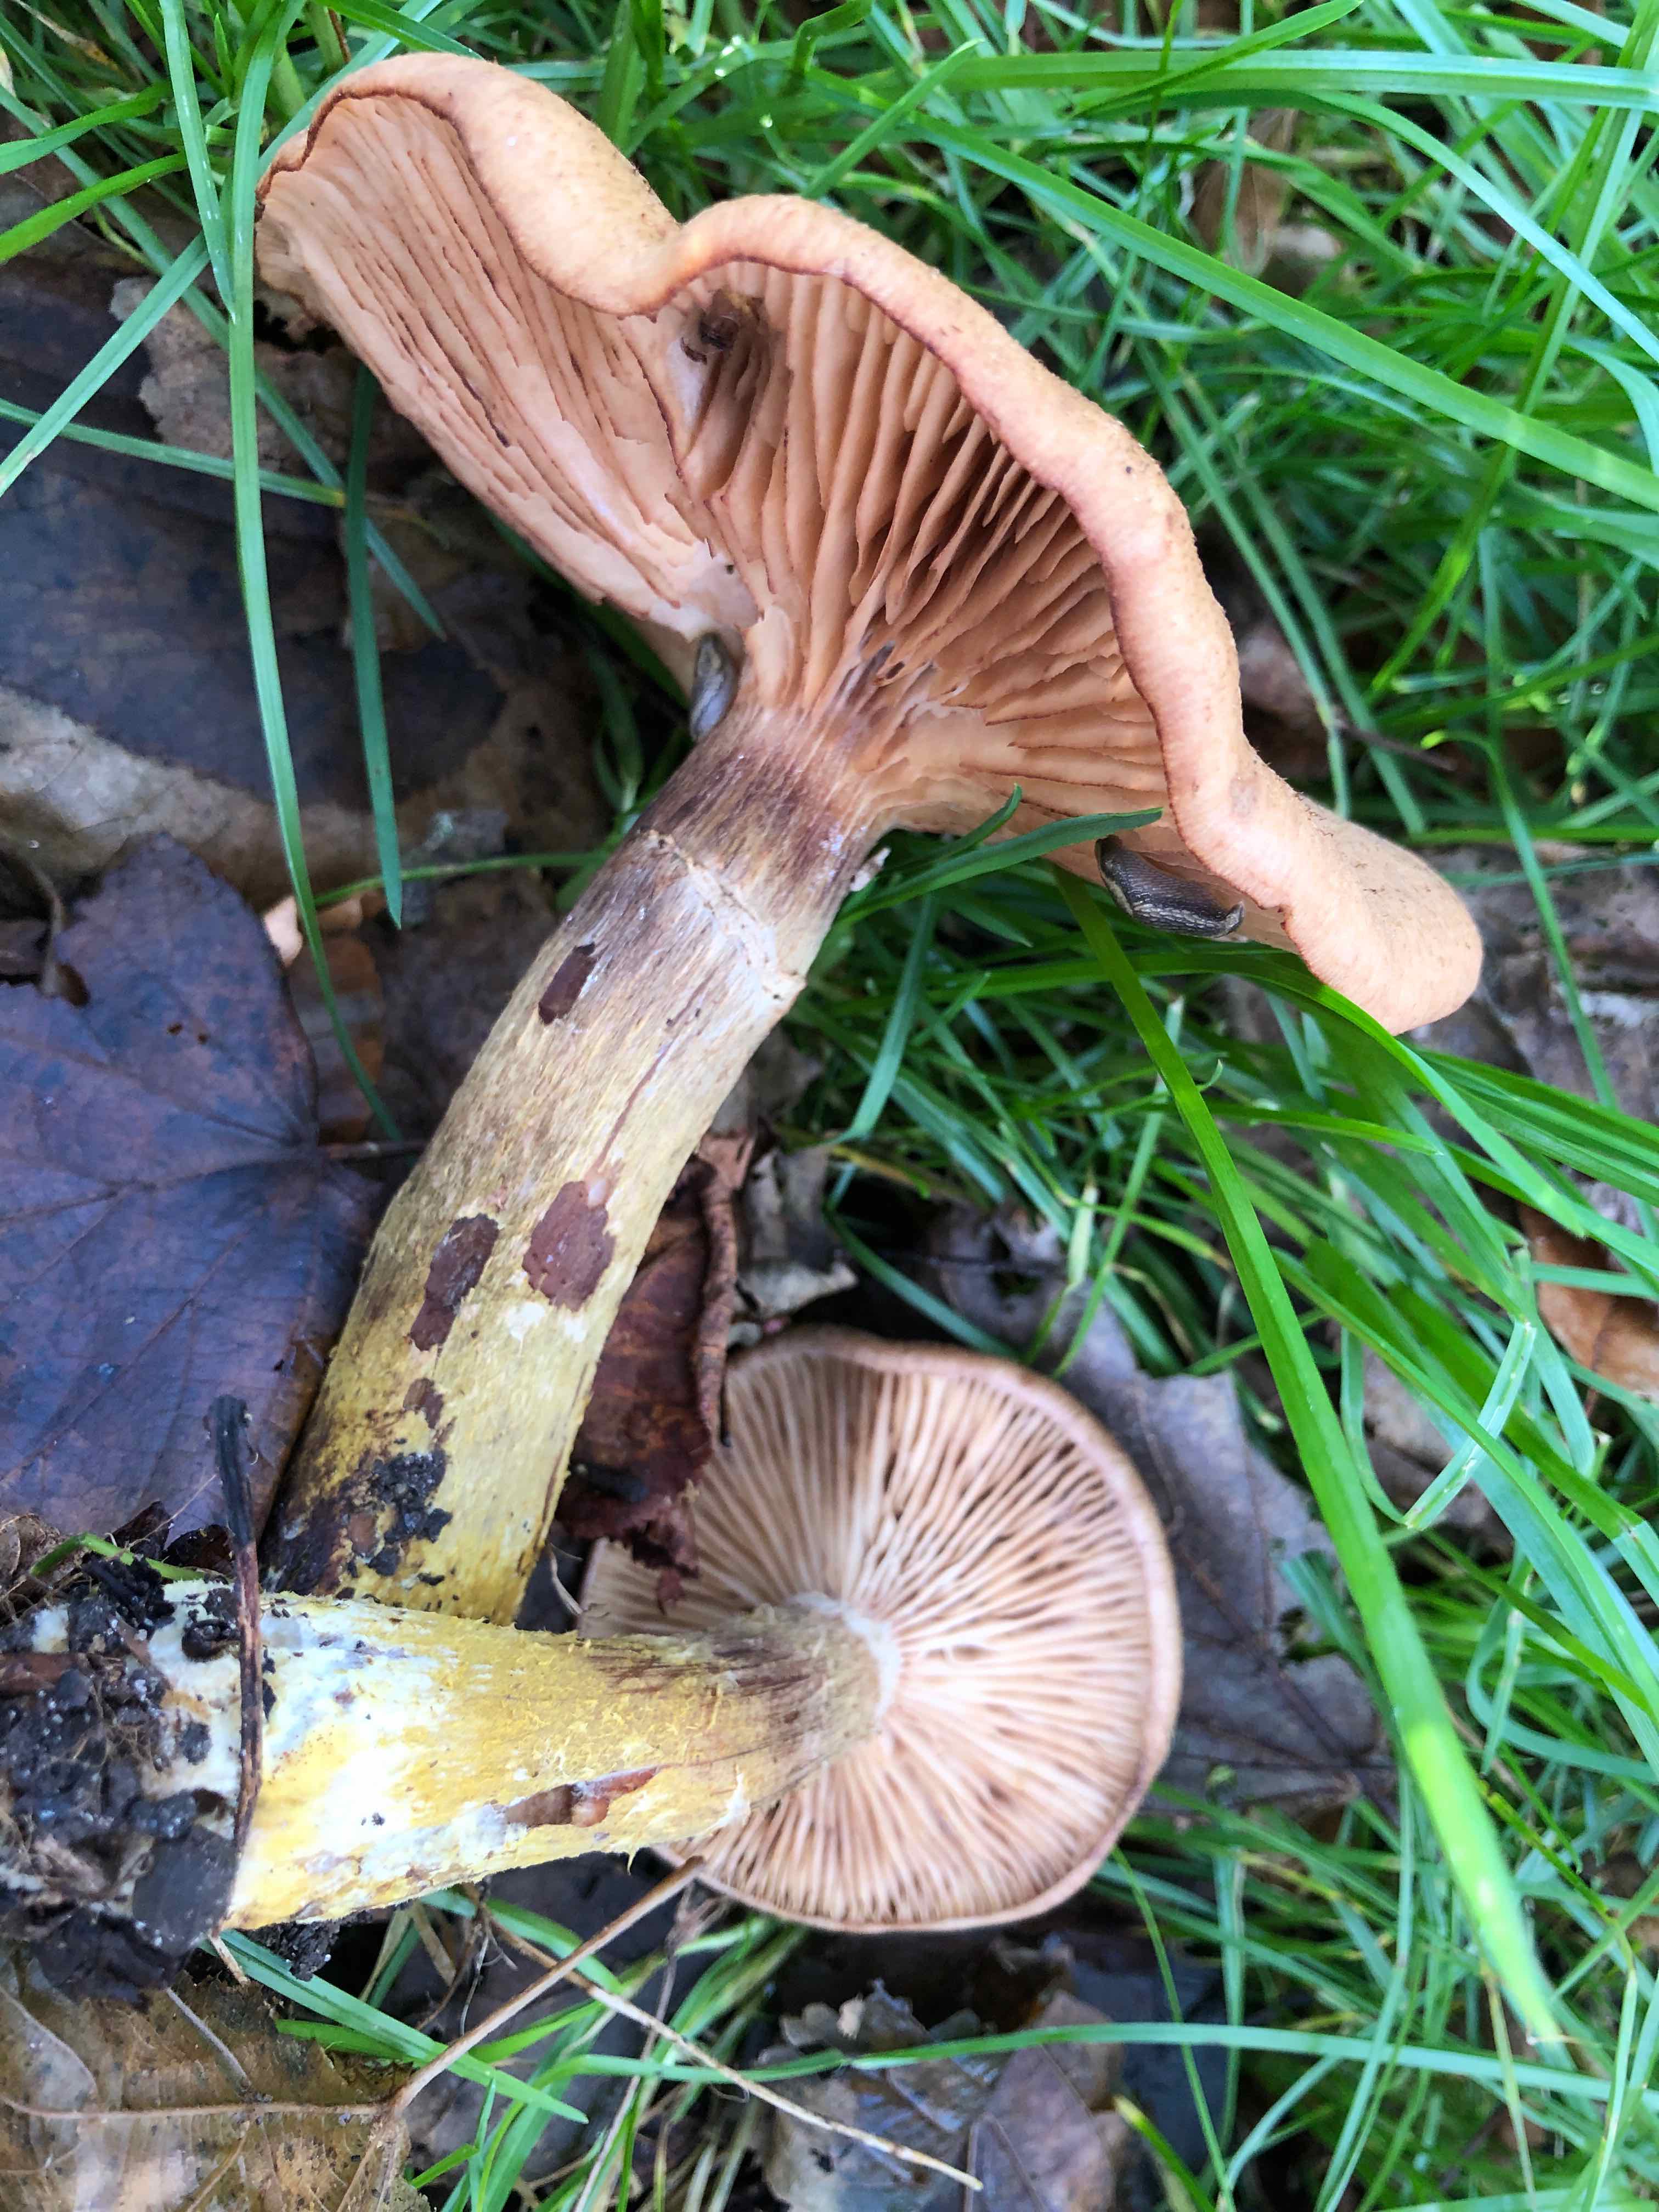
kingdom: Fungi
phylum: Basidiomycota
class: Agaricomycetes
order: Agaricales
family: Physalacriaceae
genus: Armillaria
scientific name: Armillaria lutea
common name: køllestokket honningsvamp
